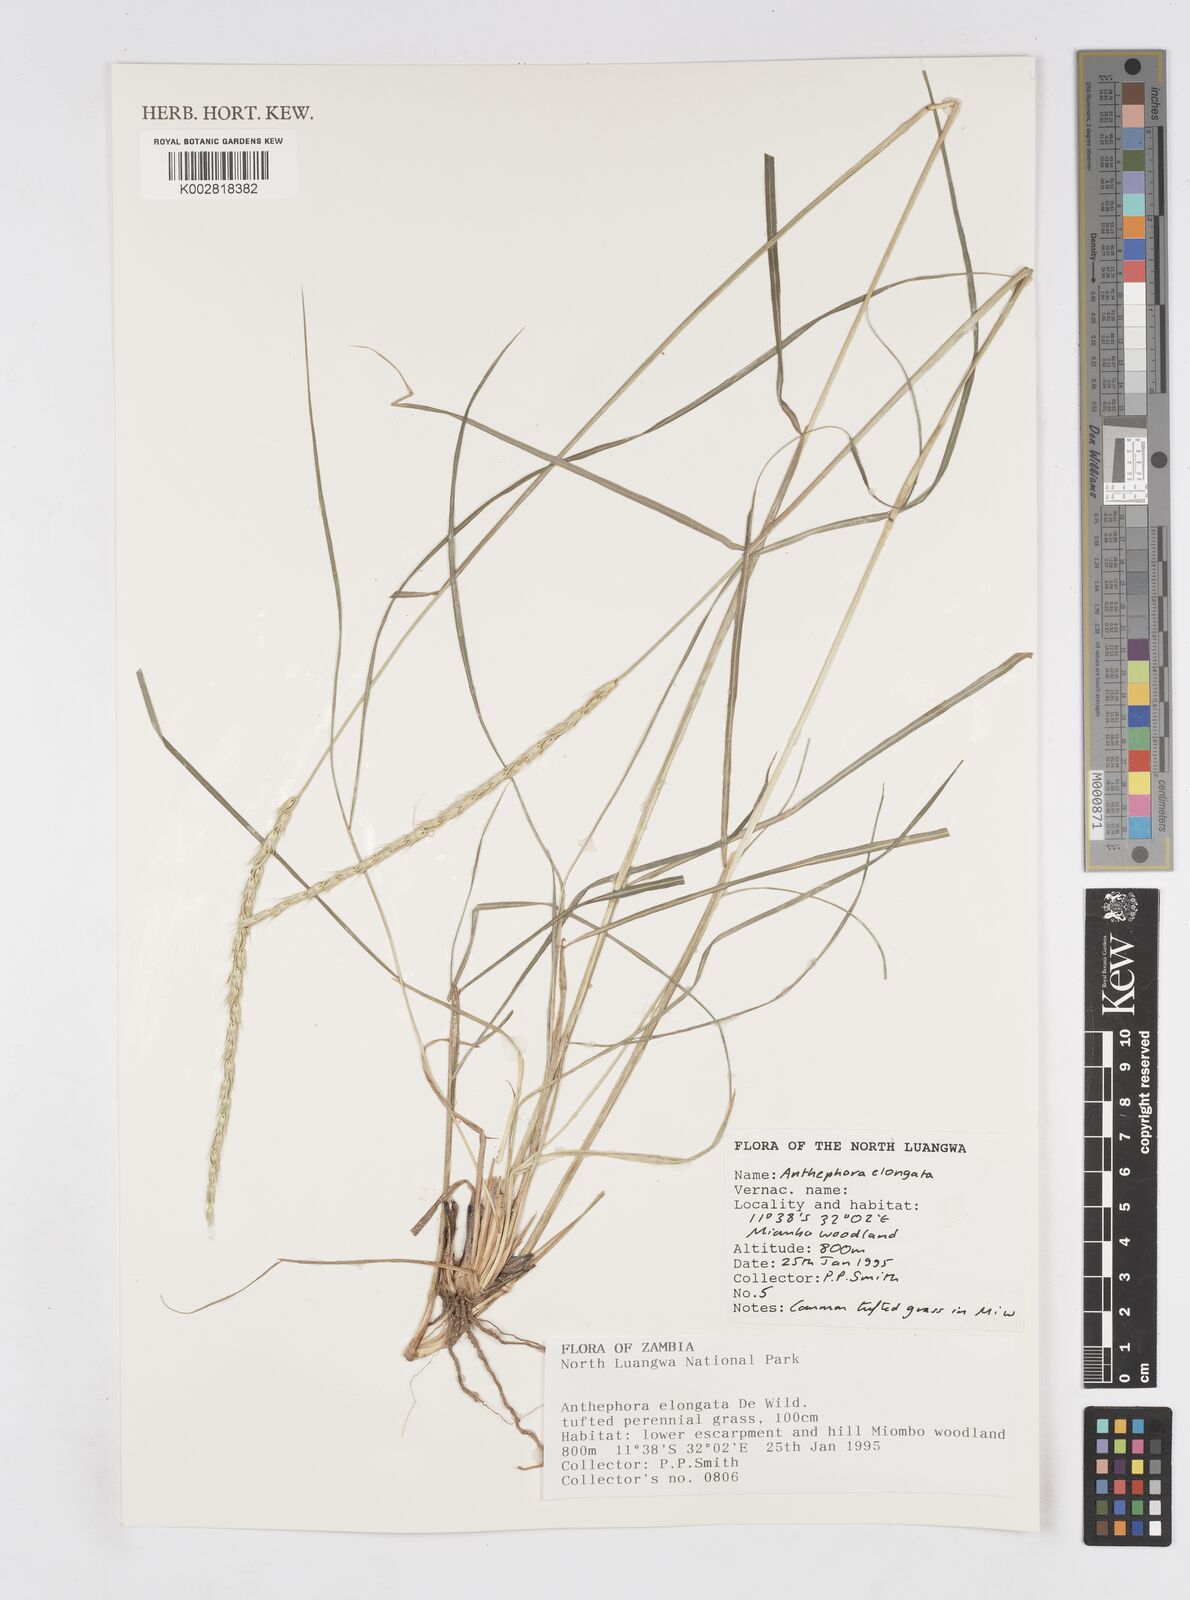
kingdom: Plantae
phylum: Tracheophyta
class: Liliopsida
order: Poales
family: Poaceae
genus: Anthephora
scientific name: Anthephora elongata
